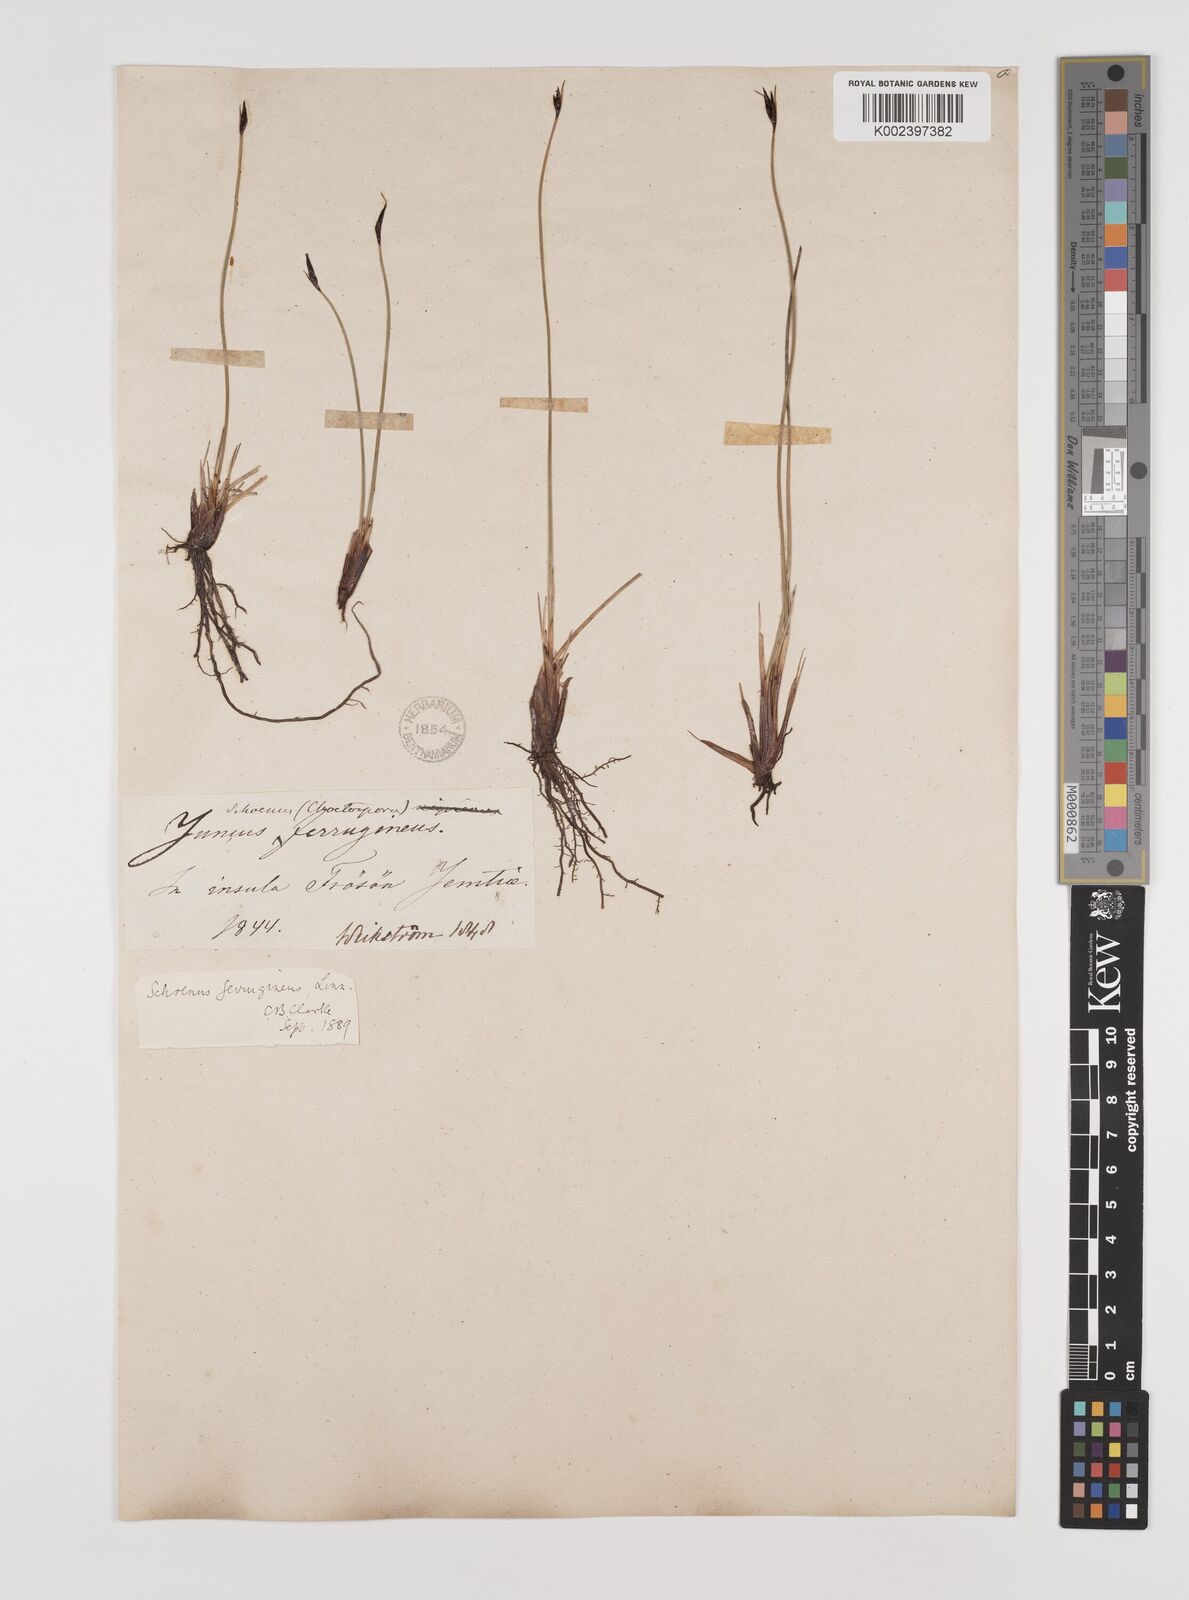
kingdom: Plantae
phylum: Tracheophyta
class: Liliopsida
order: Poales
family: Cyperaceae
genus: Schoenus
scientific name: Schoenus ferrugineus
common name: Brown bog-rush
